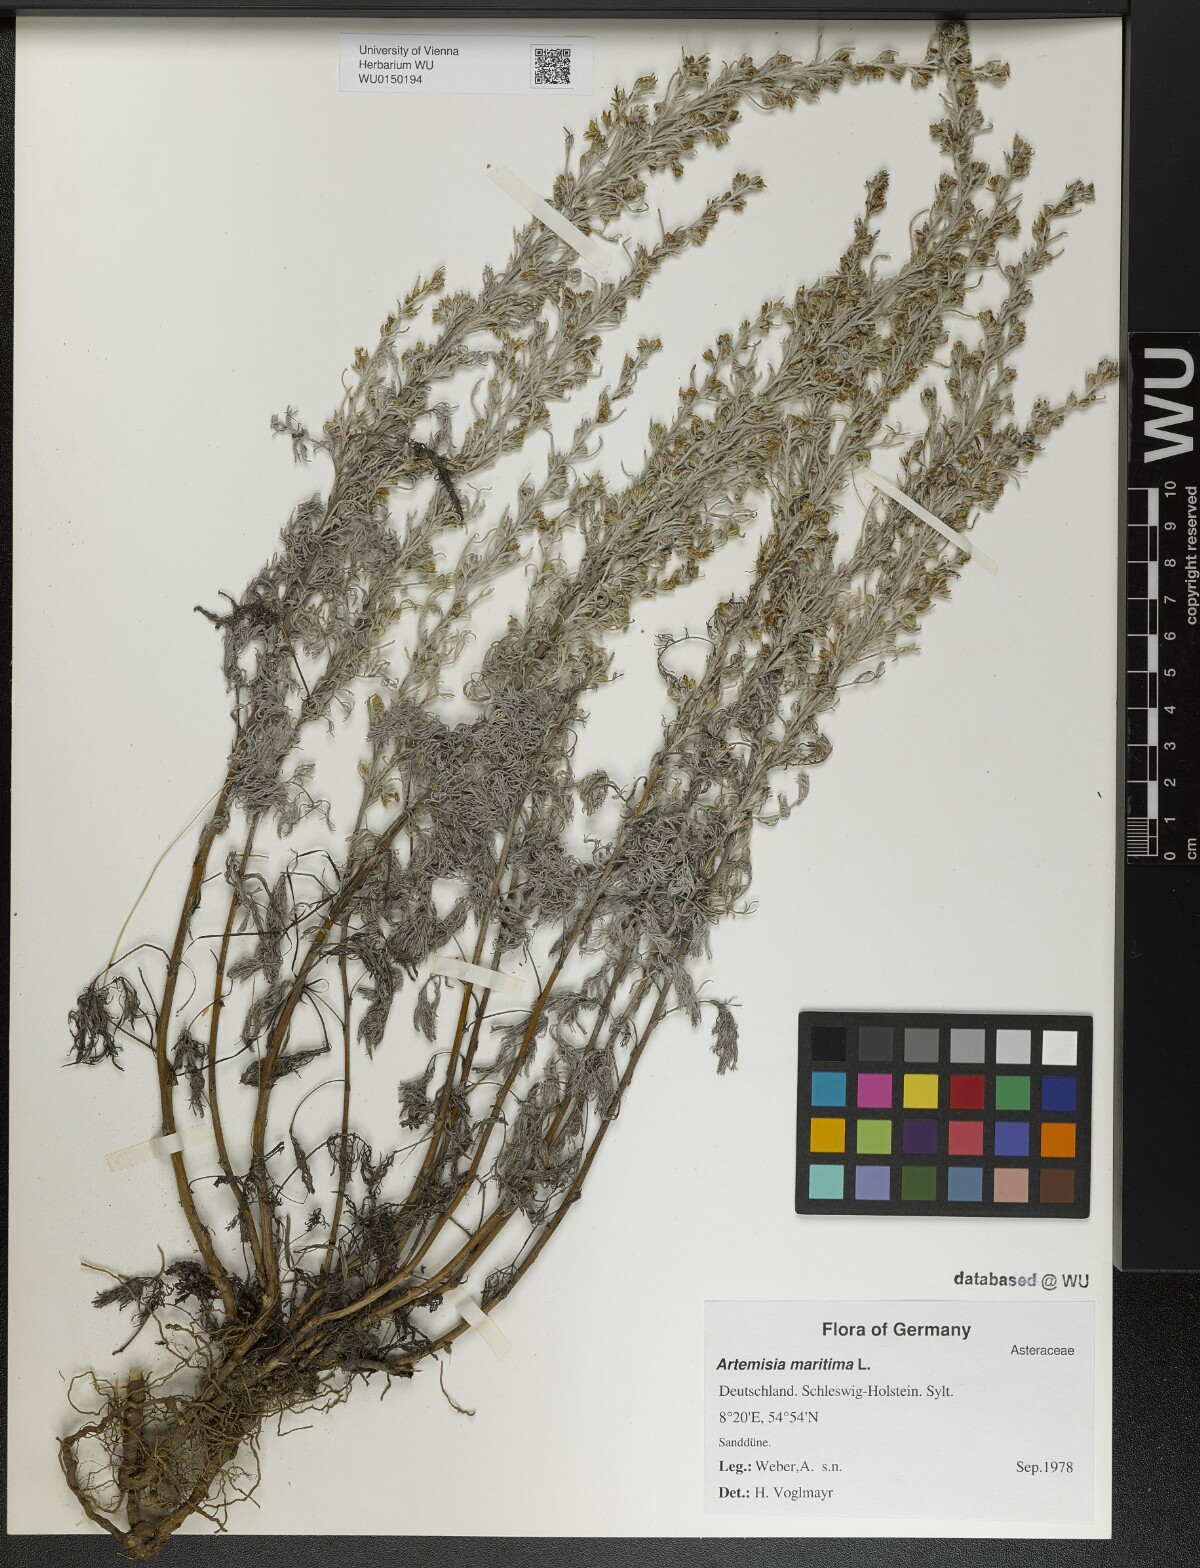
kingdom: Plantae
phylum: Tracheophyta
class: Magnoliopsida
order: Asterales
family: Asteraceae
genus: Artemisia
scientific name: Artemisia maritima
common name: Wormseed
